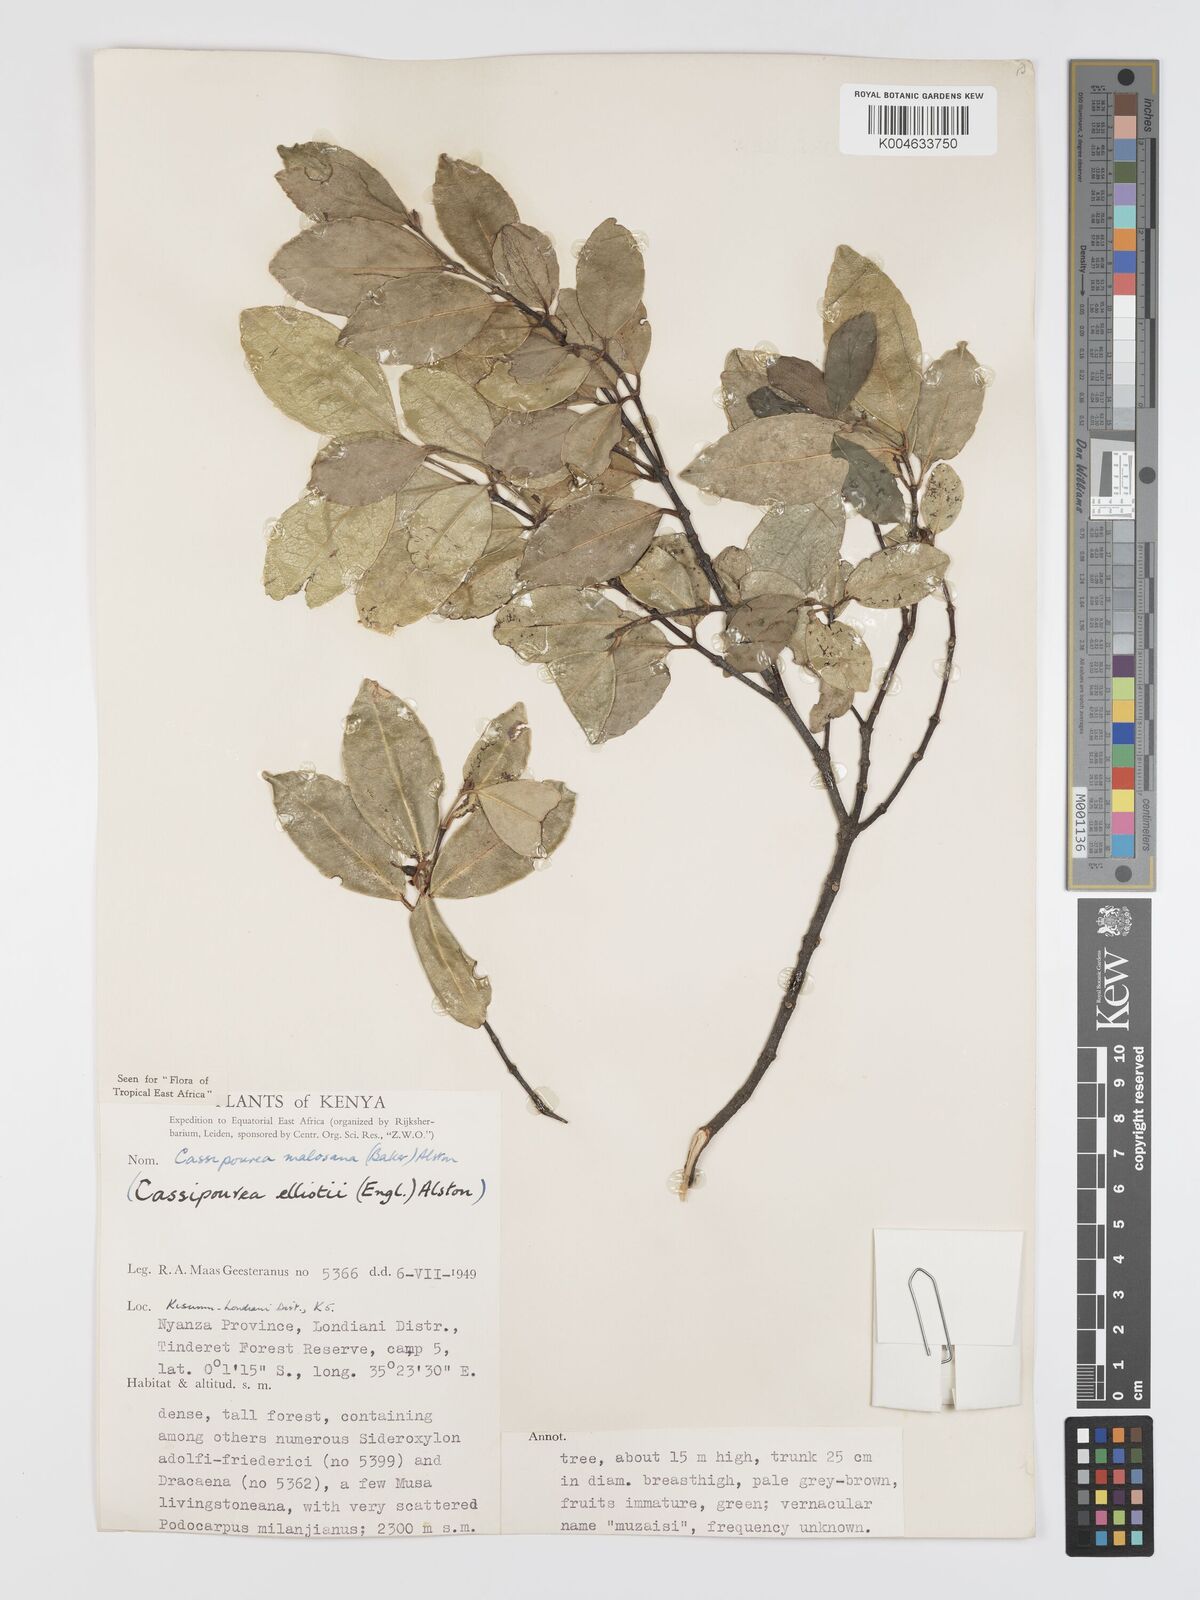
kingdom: Plantae
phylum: Tracheophyta
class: Magnoliopsida
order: Malpighiales
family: Rhizophoraceae
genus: Cassipourea
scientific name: Cassipourea
